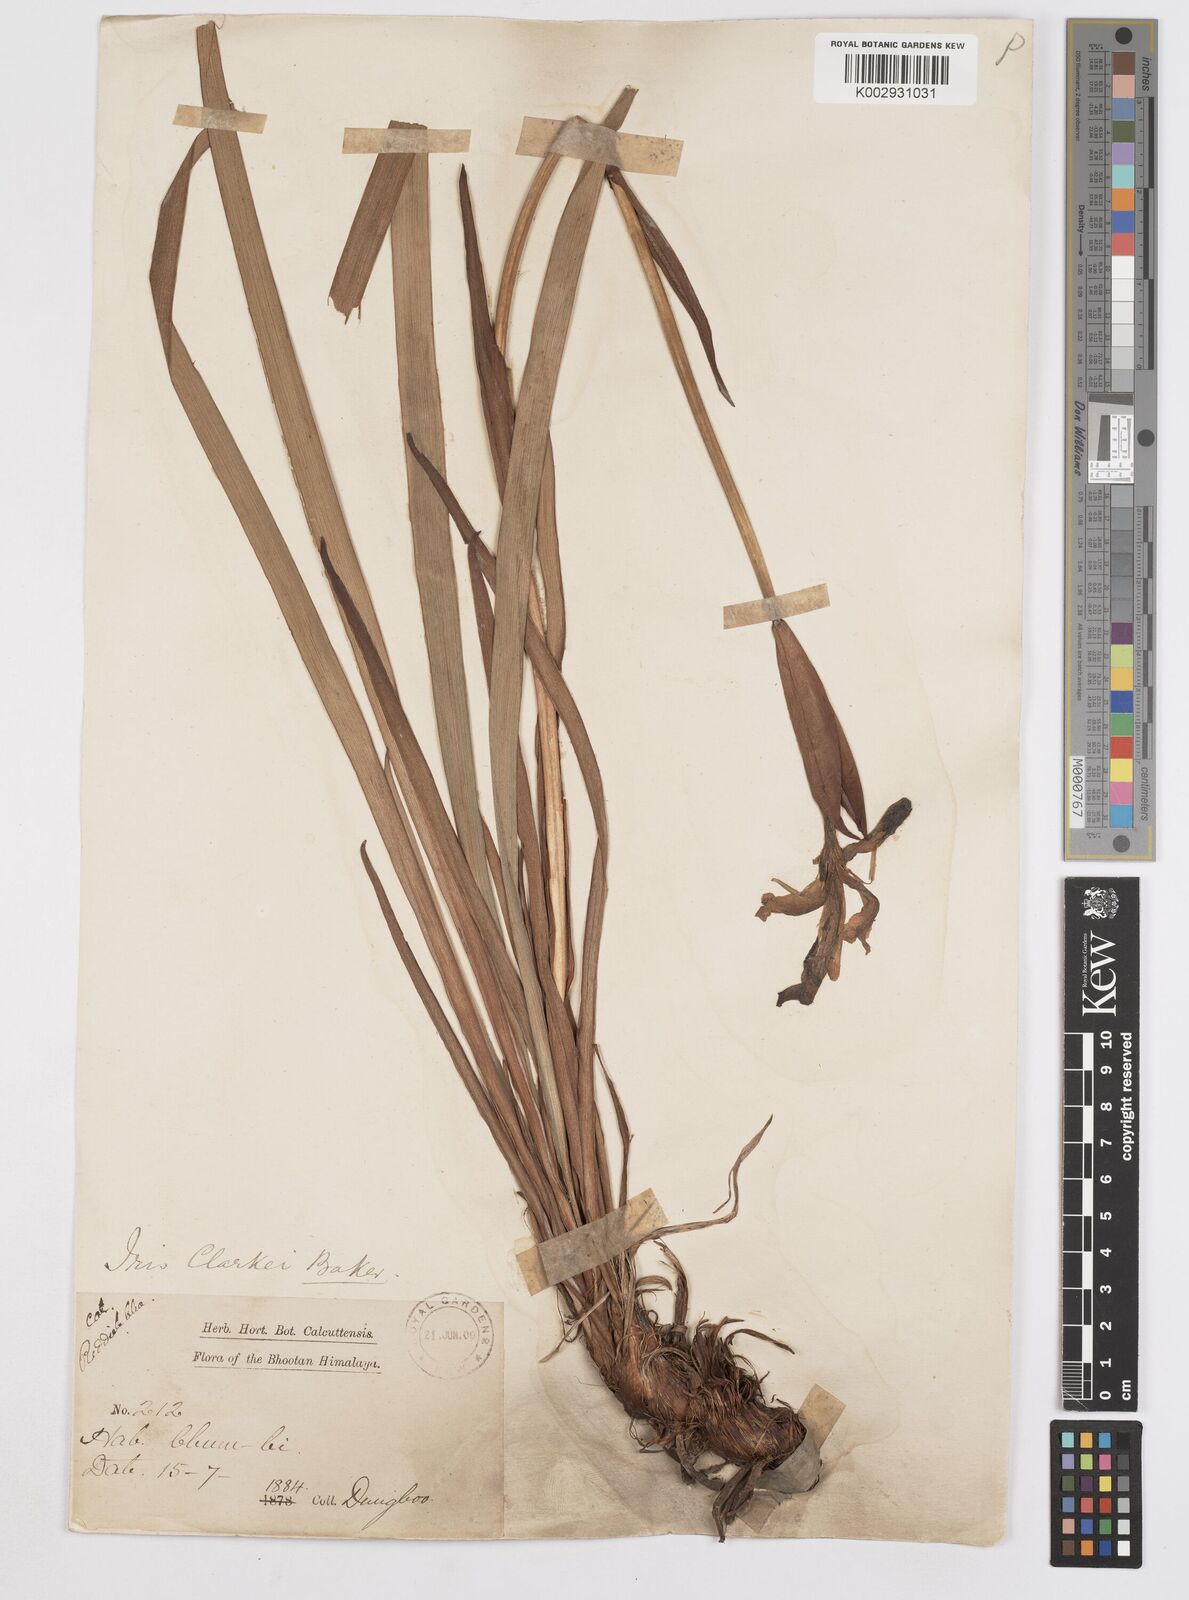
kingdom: Plantae
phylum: Tracheophyta
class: Liliopsida
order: Asparagales
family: Iridaceae
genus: Iris
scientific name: Iris clarkei
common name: Tibet iris
